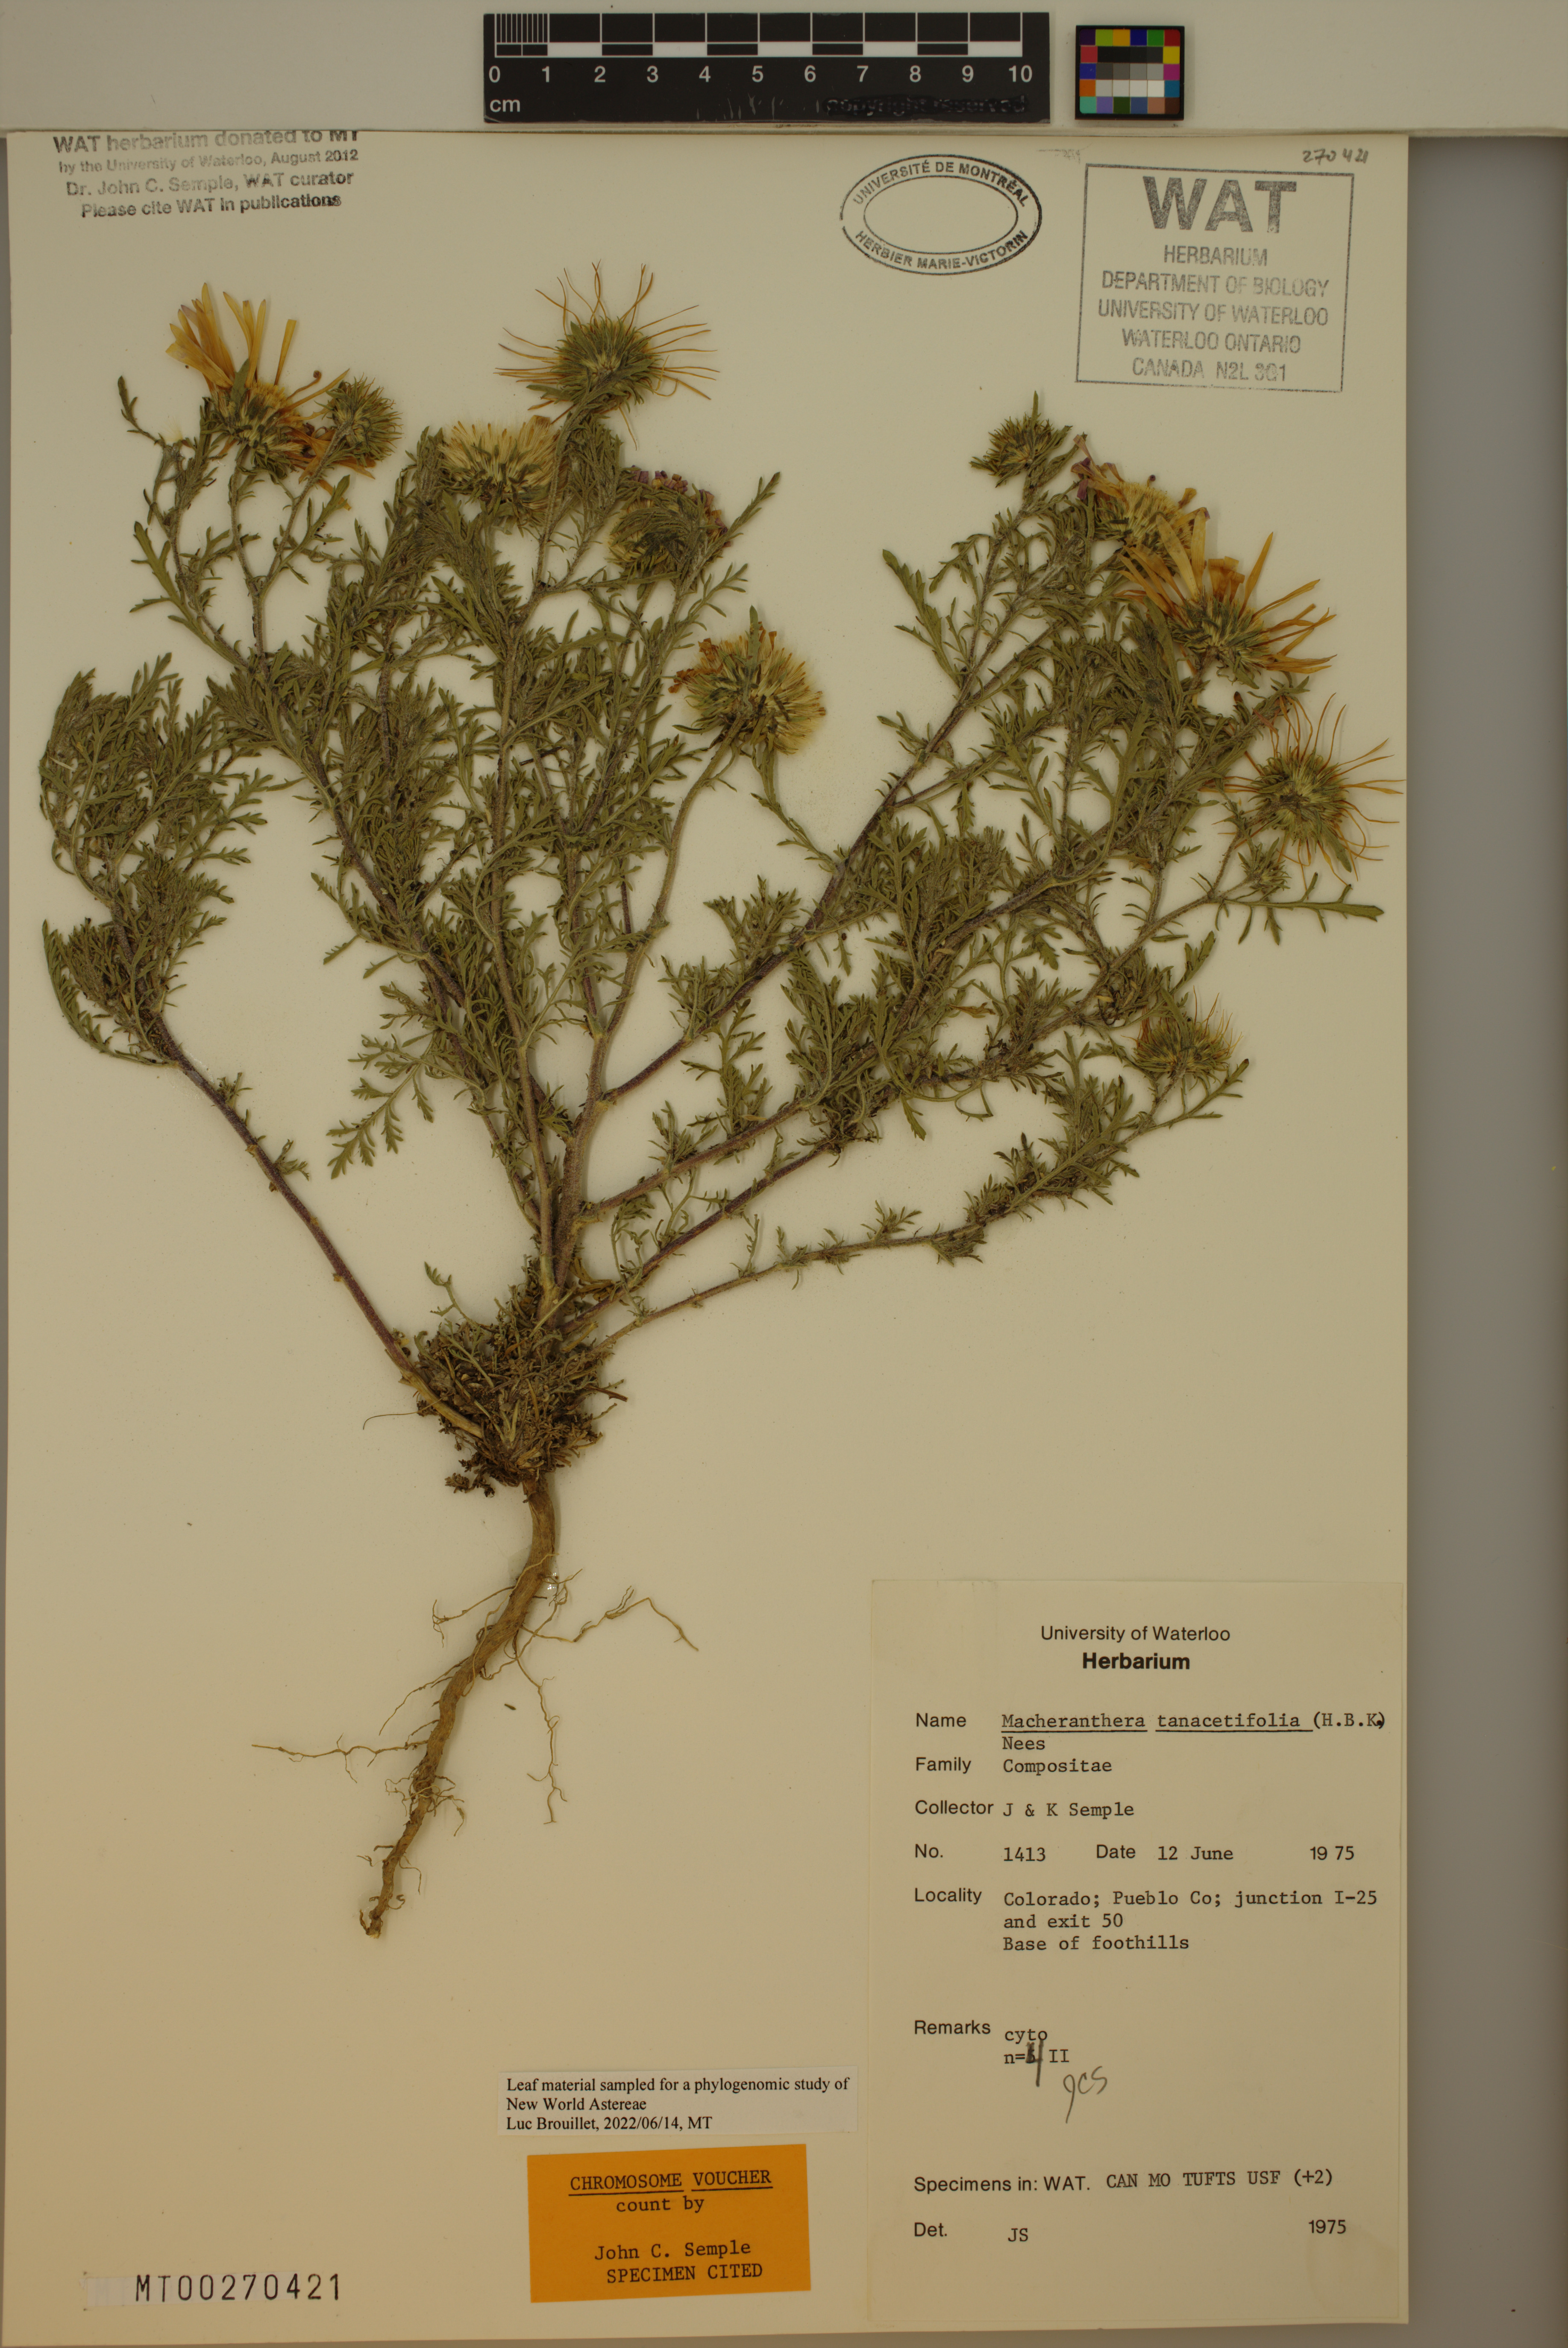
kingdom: Plantae
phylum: Tracheophyta
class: Magnoliopsida
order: Asterales
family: Asteraceae
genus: Machaeranthera
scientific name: Machaeranthera tanacetifolia
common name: Tansy-aster
